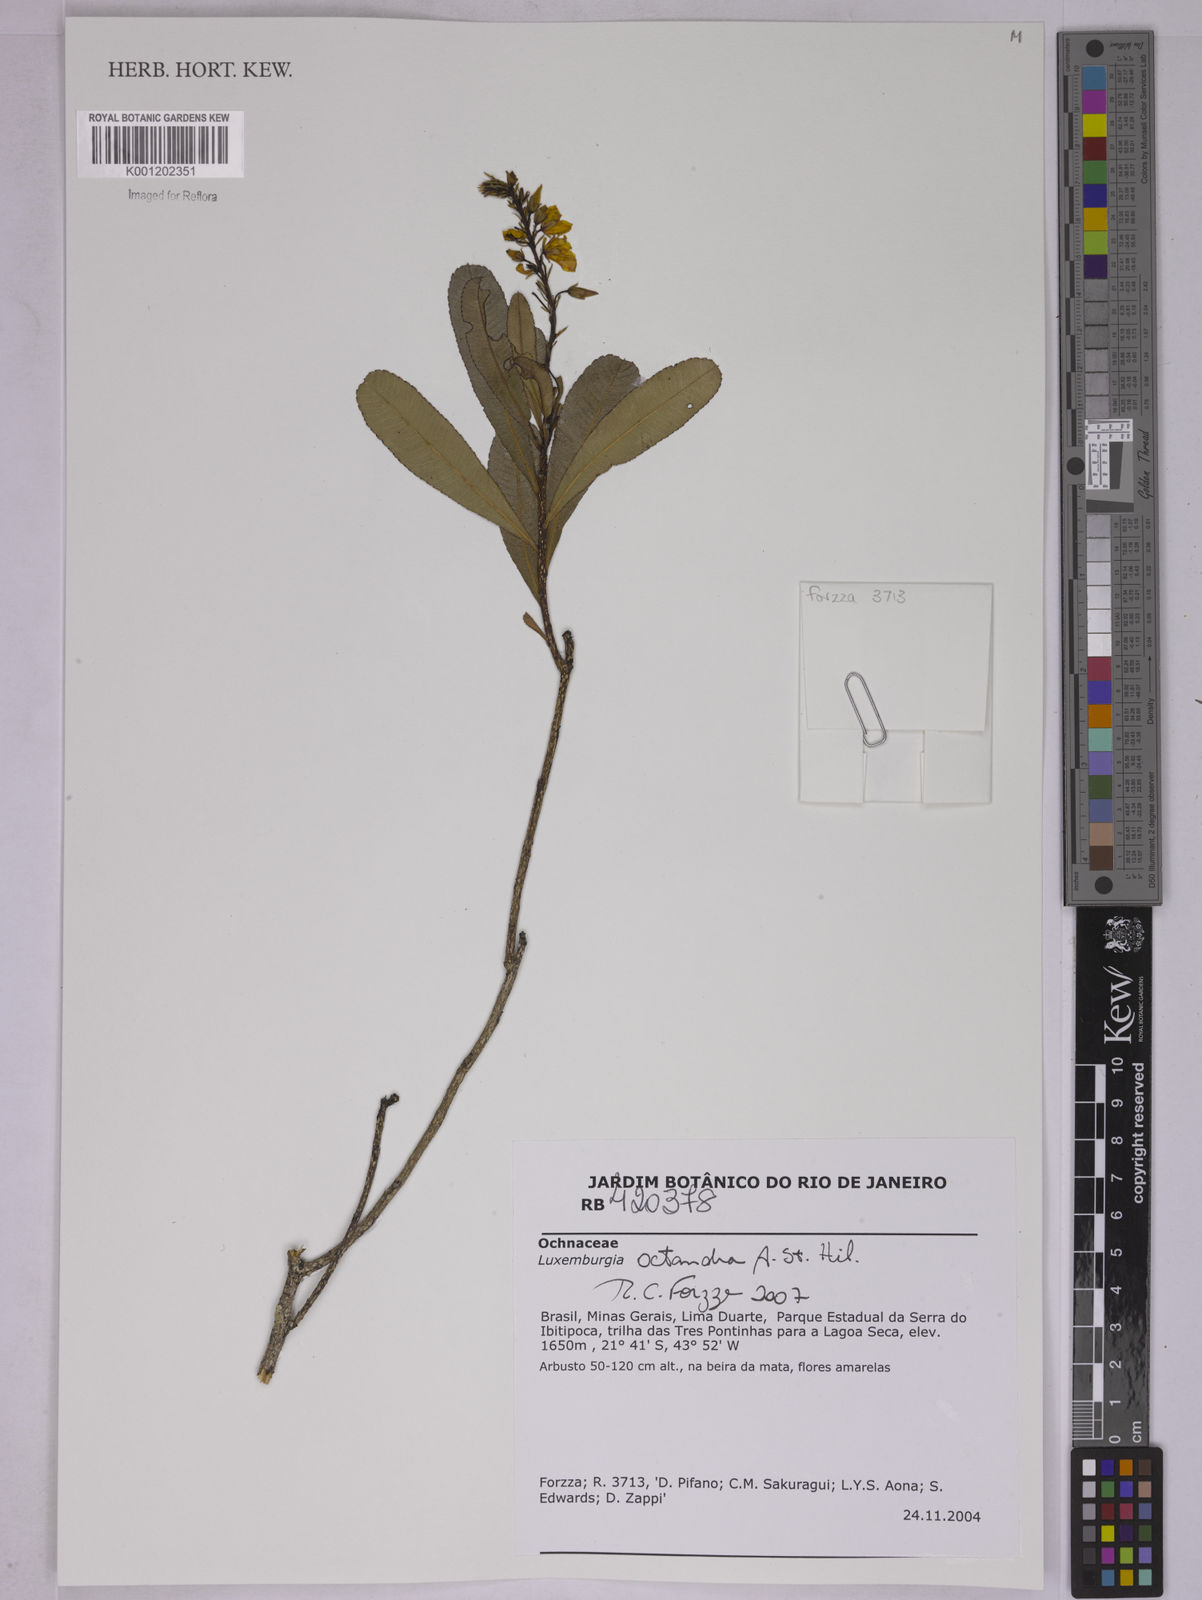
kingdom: Plantae
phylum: Tracheophyta
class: Magnoliopsida
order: Malpighiales
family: Ochnaceae
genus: Luxemburgia
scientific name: Luxemburgia octandra
